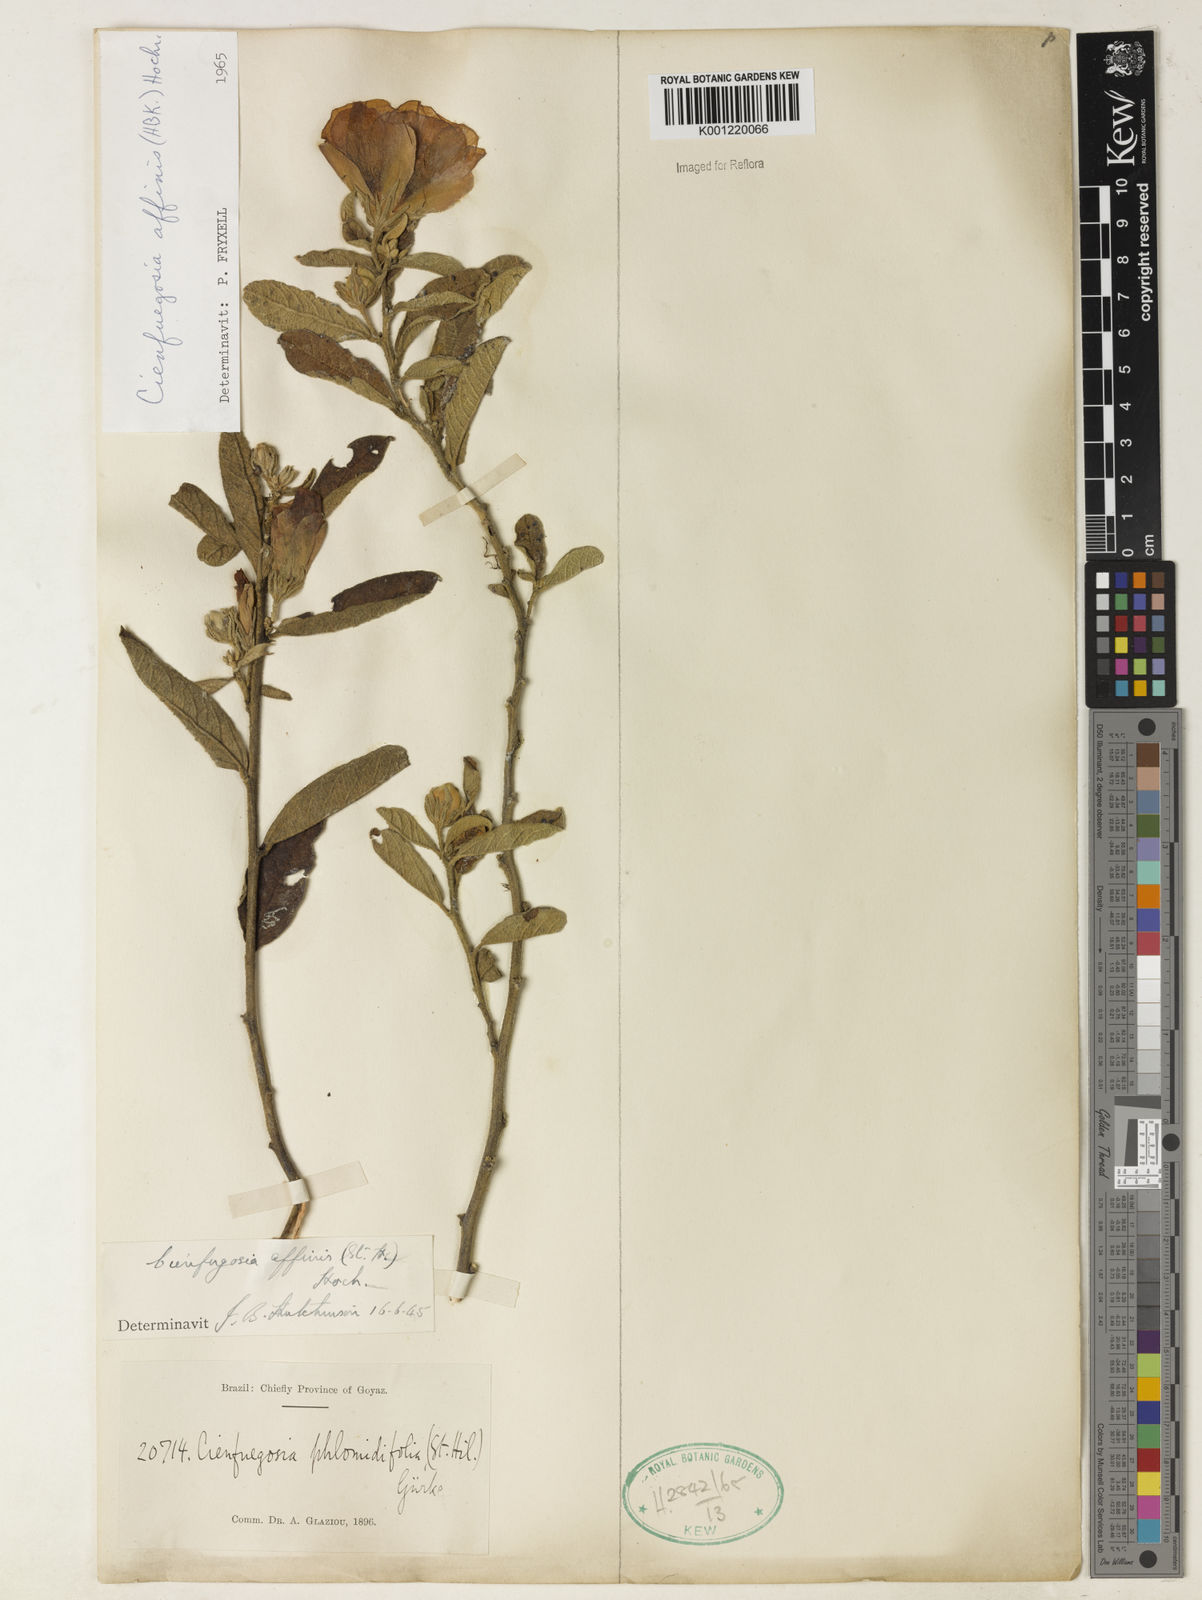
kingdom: Plantae
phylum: Tracheophyta
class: Magnoliopsida
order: Malvales
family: Malvaceae
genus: Cienfuegosia
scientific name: Cienfuegosia affinis
